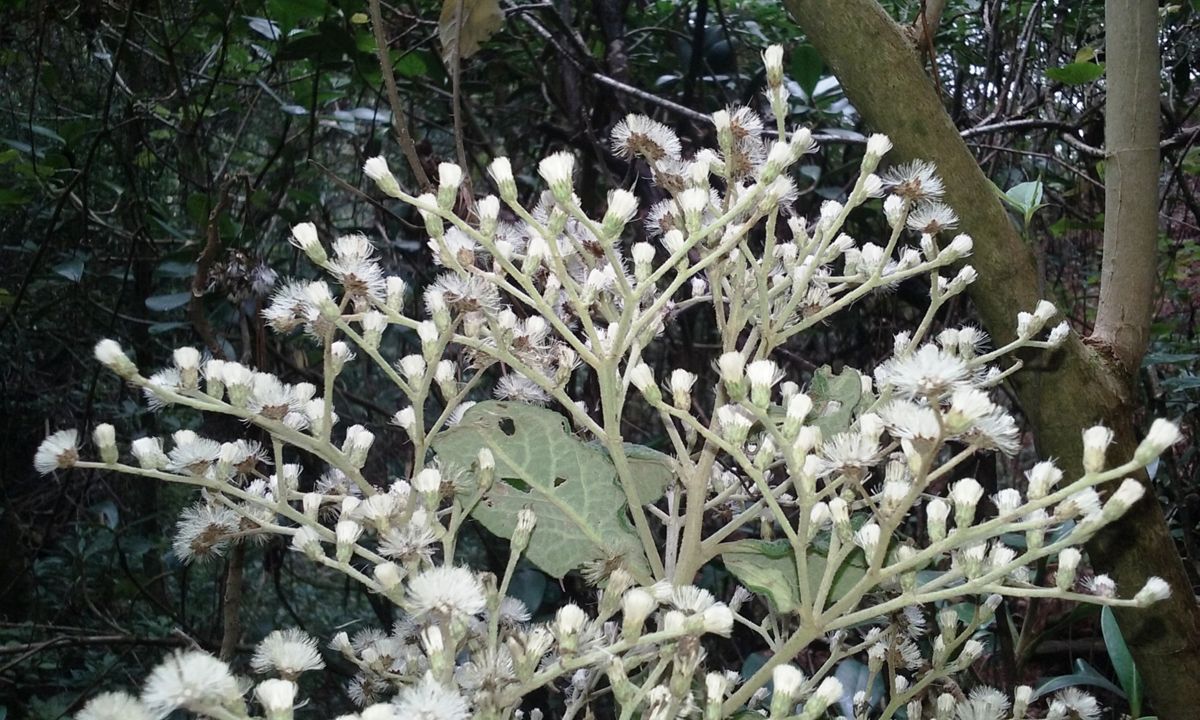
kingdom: Plantae
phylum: Tracheophyta
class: Magnoliopsida
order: Asterales
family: Asteraceae
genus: Vernonanthura
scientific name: Vernonanthura patens
